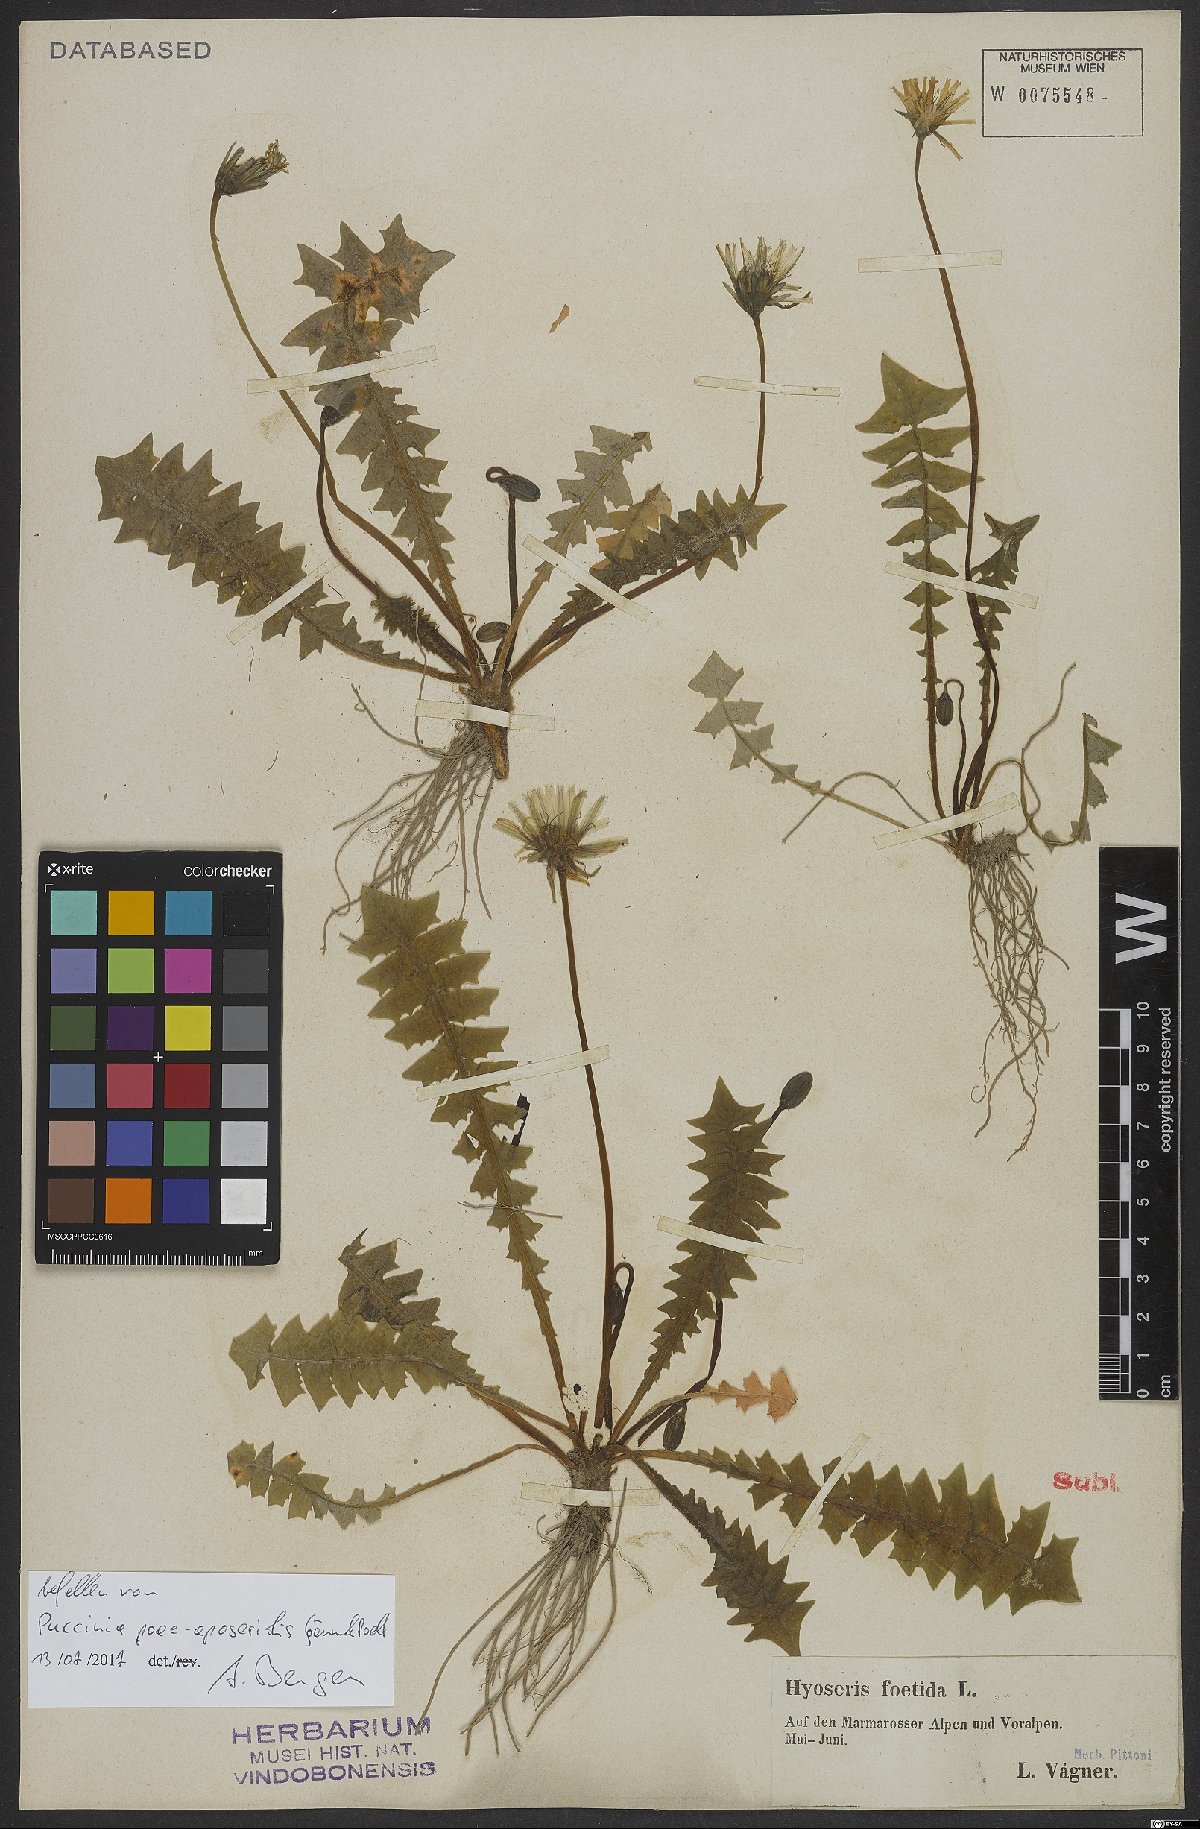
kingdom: Plantae
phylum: Tracheophyta
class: Magnoliopsida
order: Asterales
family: Asteraceae
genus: Aposeris
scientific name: Aposeris foetida
